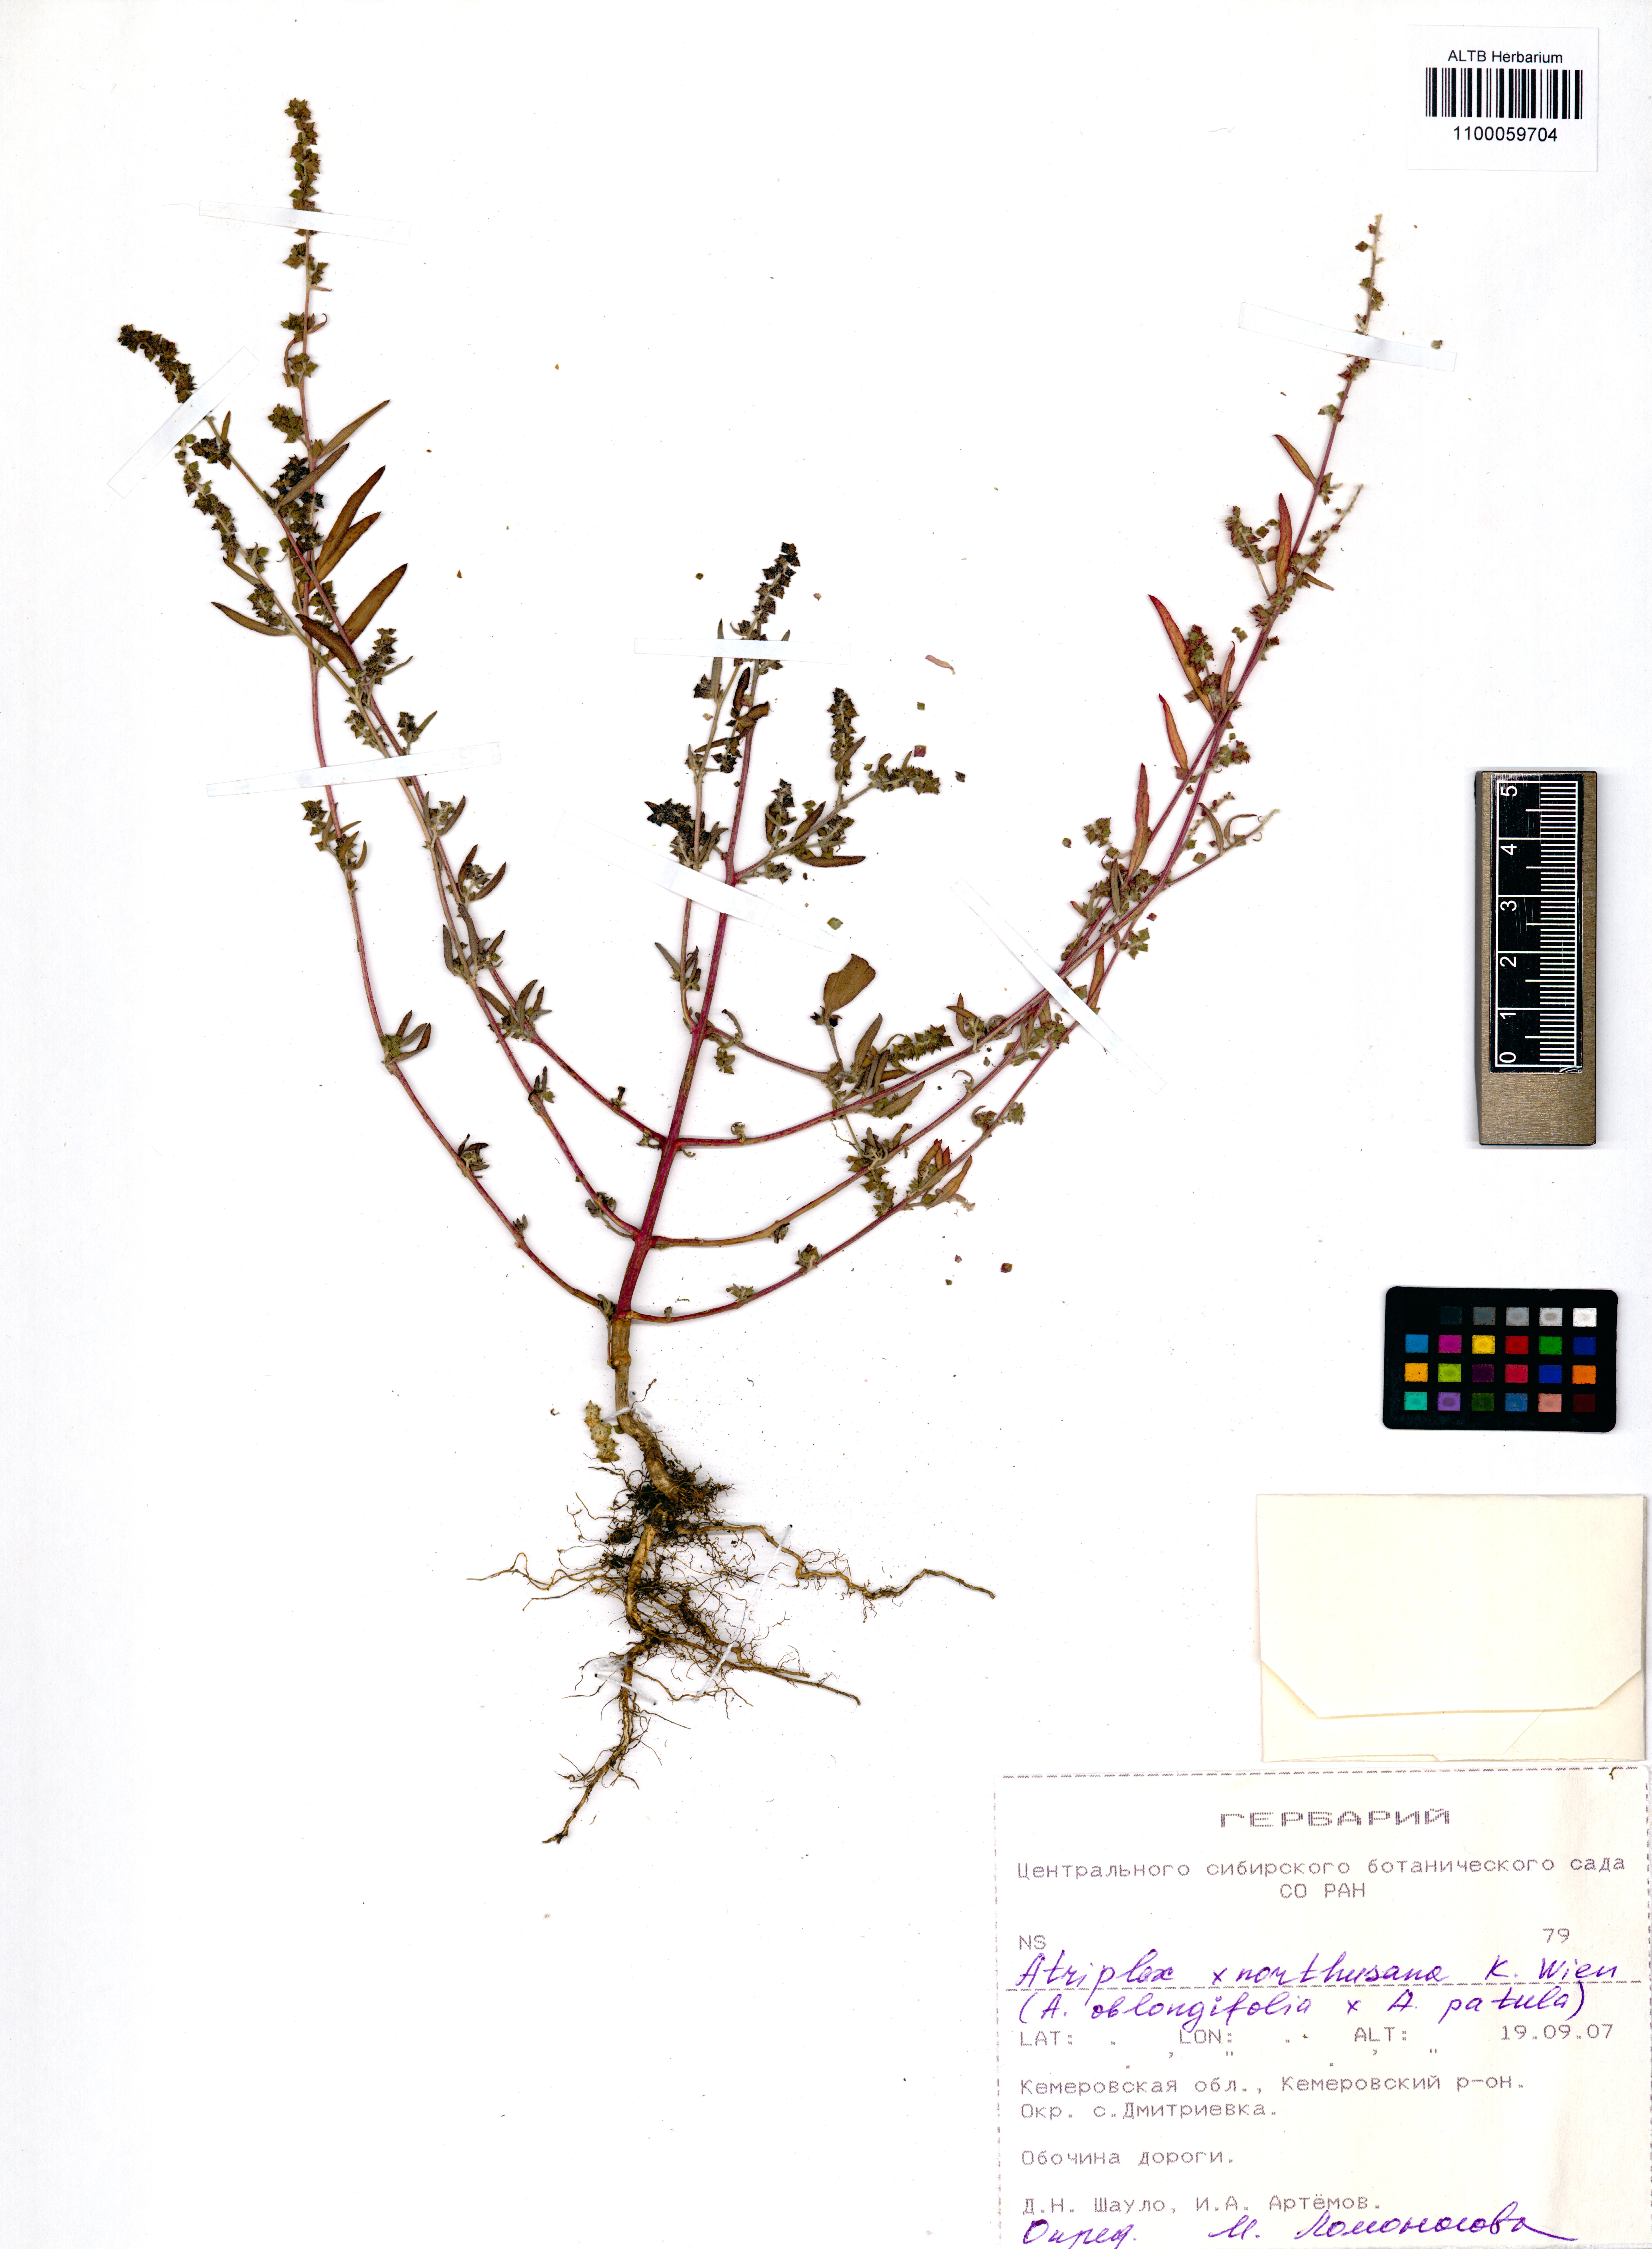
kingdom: Plantae
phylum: Tracheophyta
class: Magnoliopsida
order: Caryophyllales
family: Amaranthaceae
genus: Atriplex
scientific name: Atriplex northusanum
